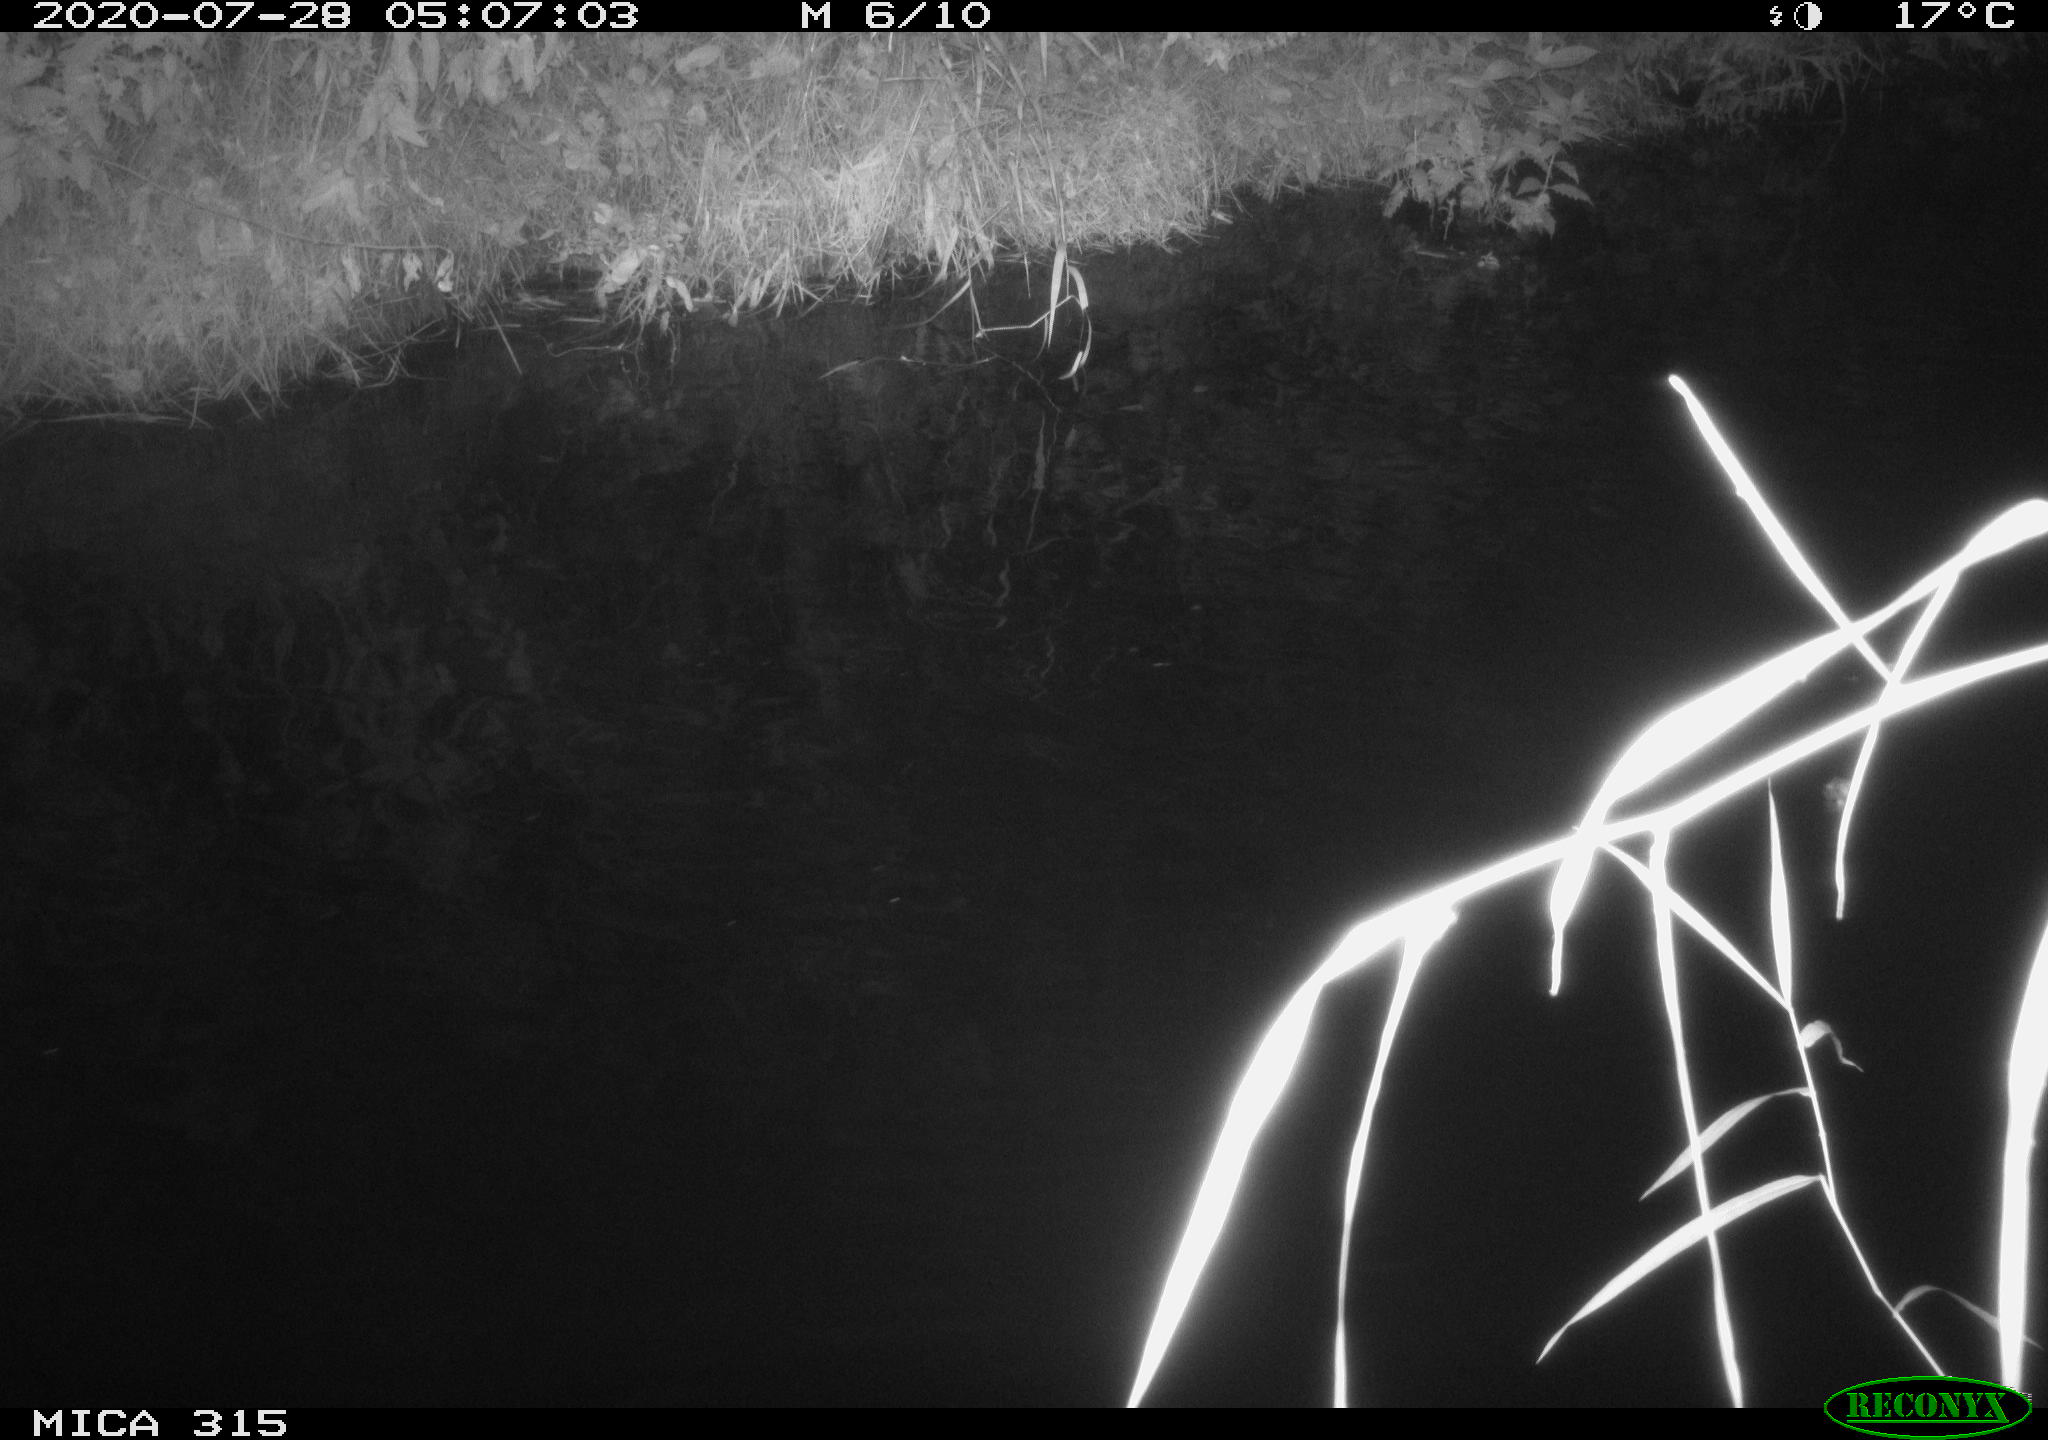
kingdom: Animalia
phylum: Chordata
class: Aves
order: Anseriformes
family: Anatidae
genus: Anas
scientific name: Anas platyrhynchos
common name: Mallard
